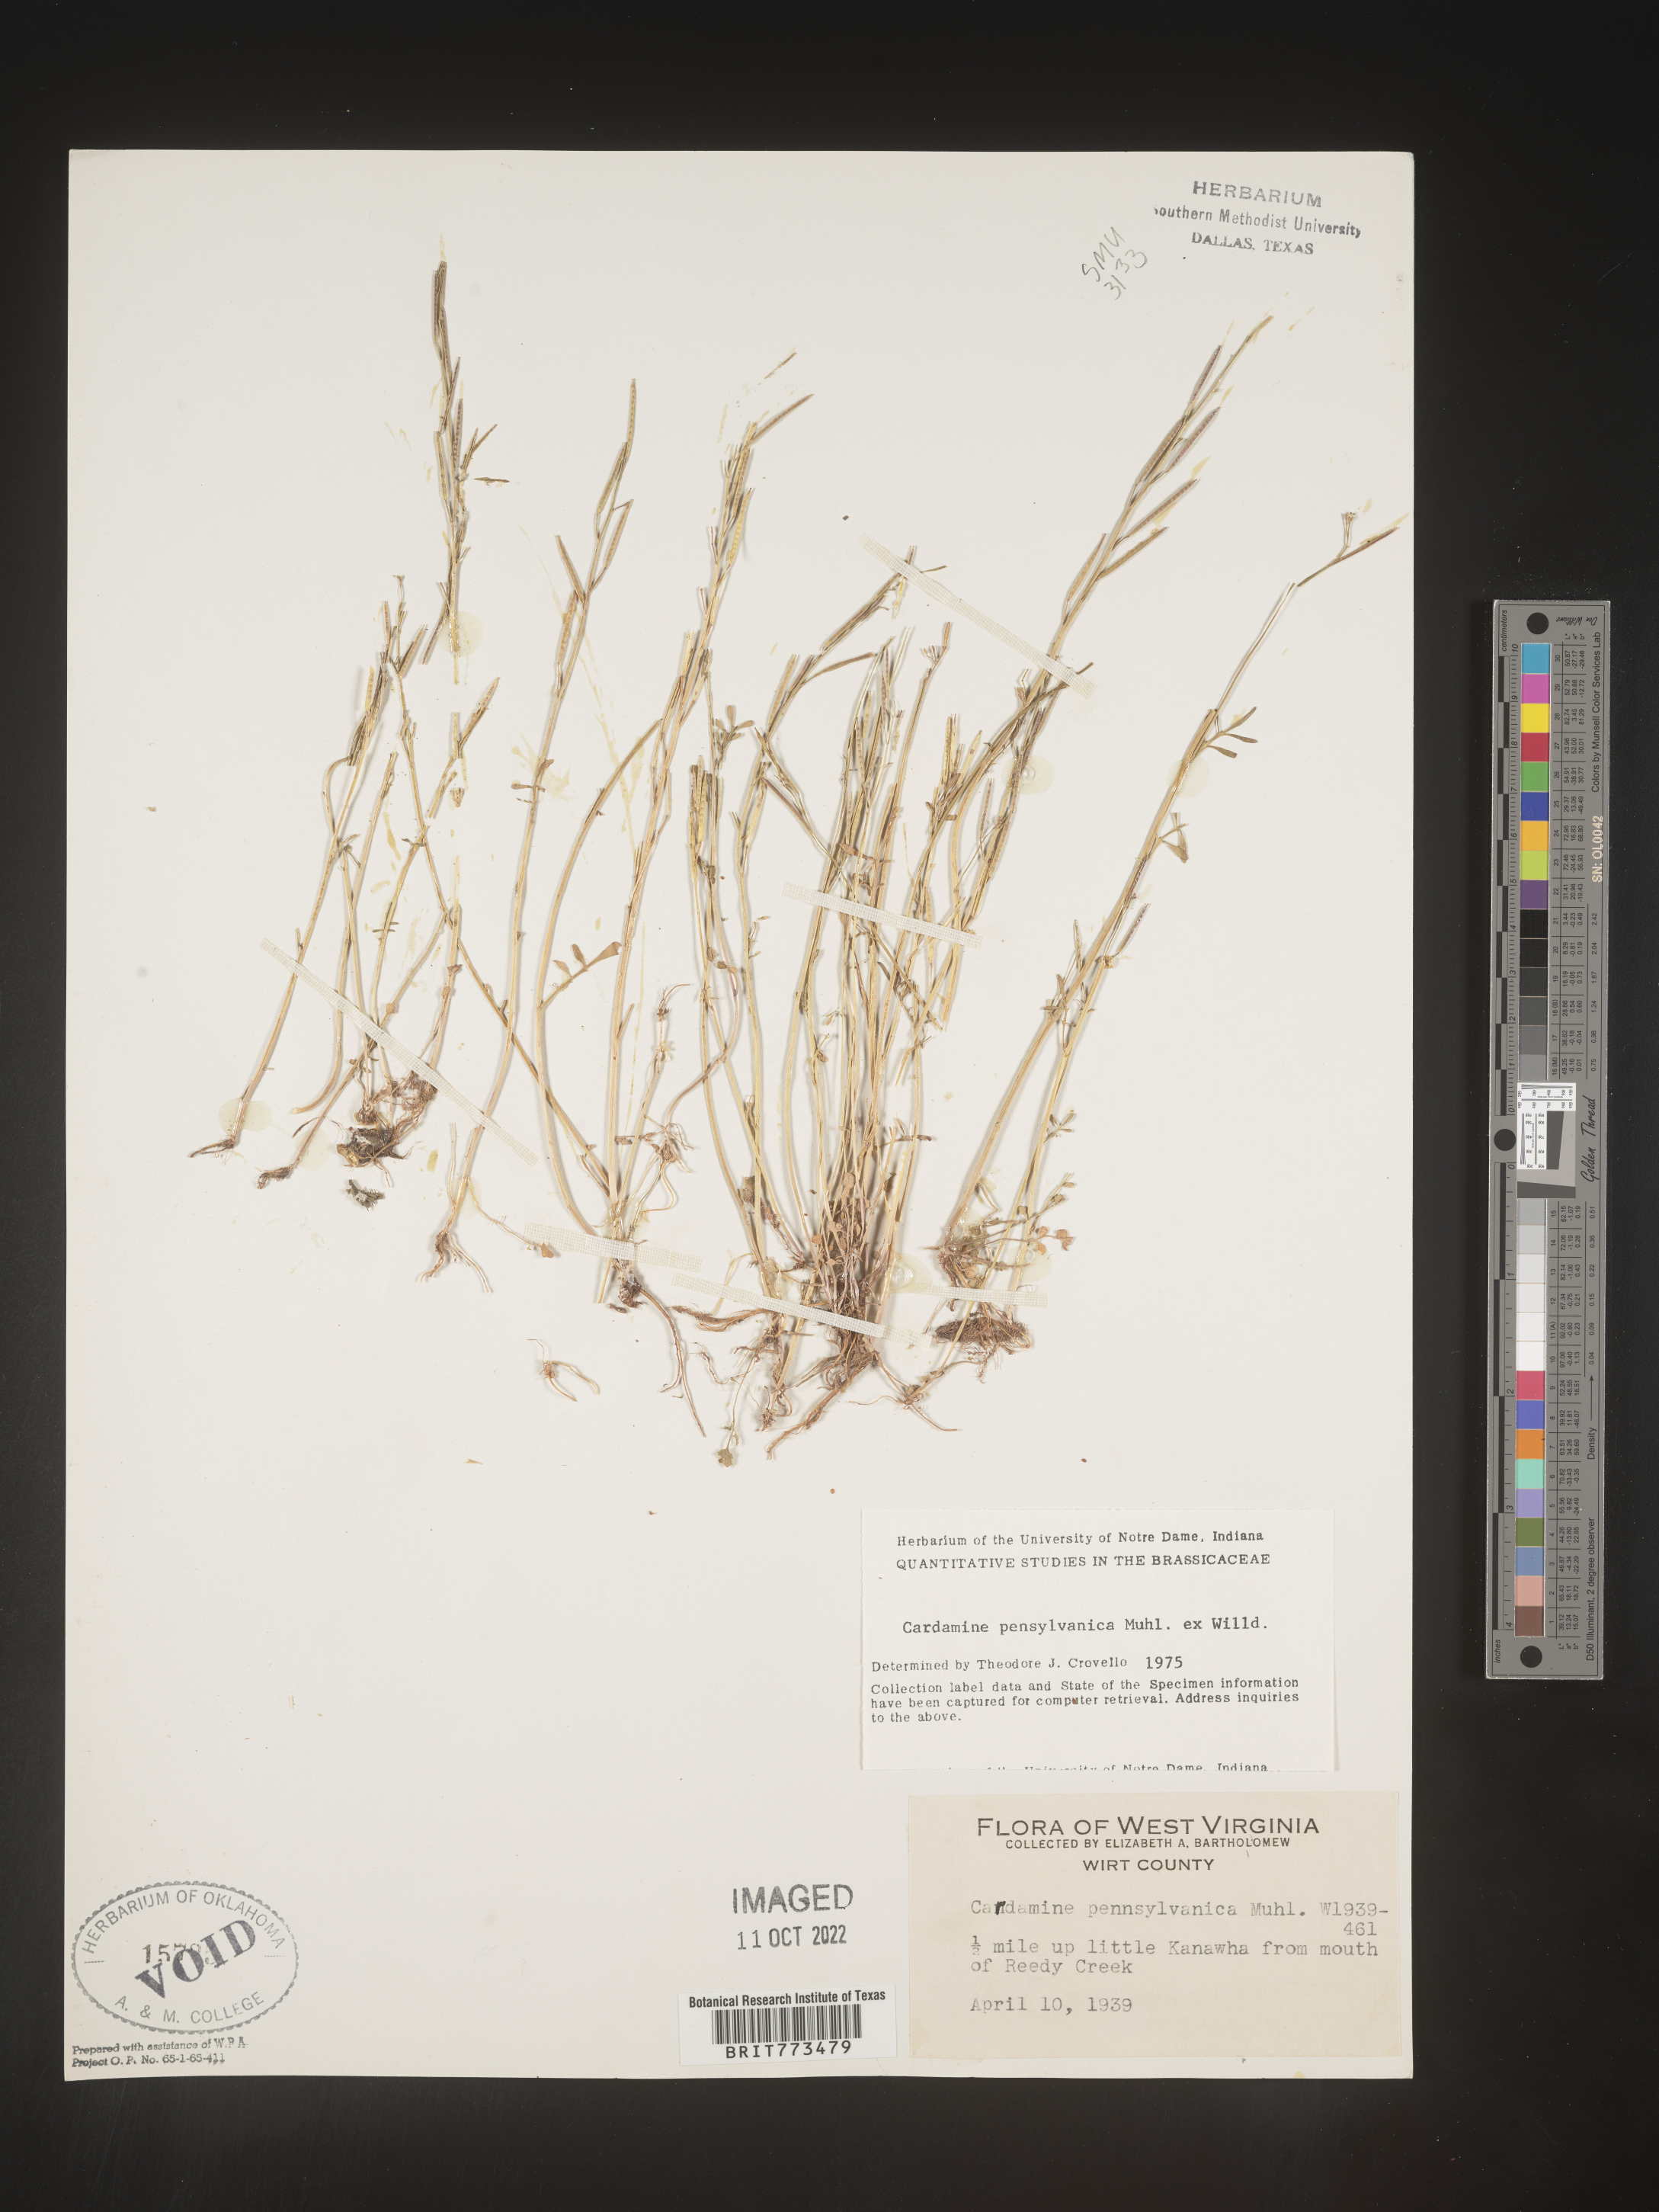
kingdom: Plantae
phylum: Tracheophyta
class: Magnoliopsida
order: Brassicales
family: Brassicaceae
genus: Cardamine
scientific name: Cardamine pensylvanica
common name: Pennsylvania bittercress
